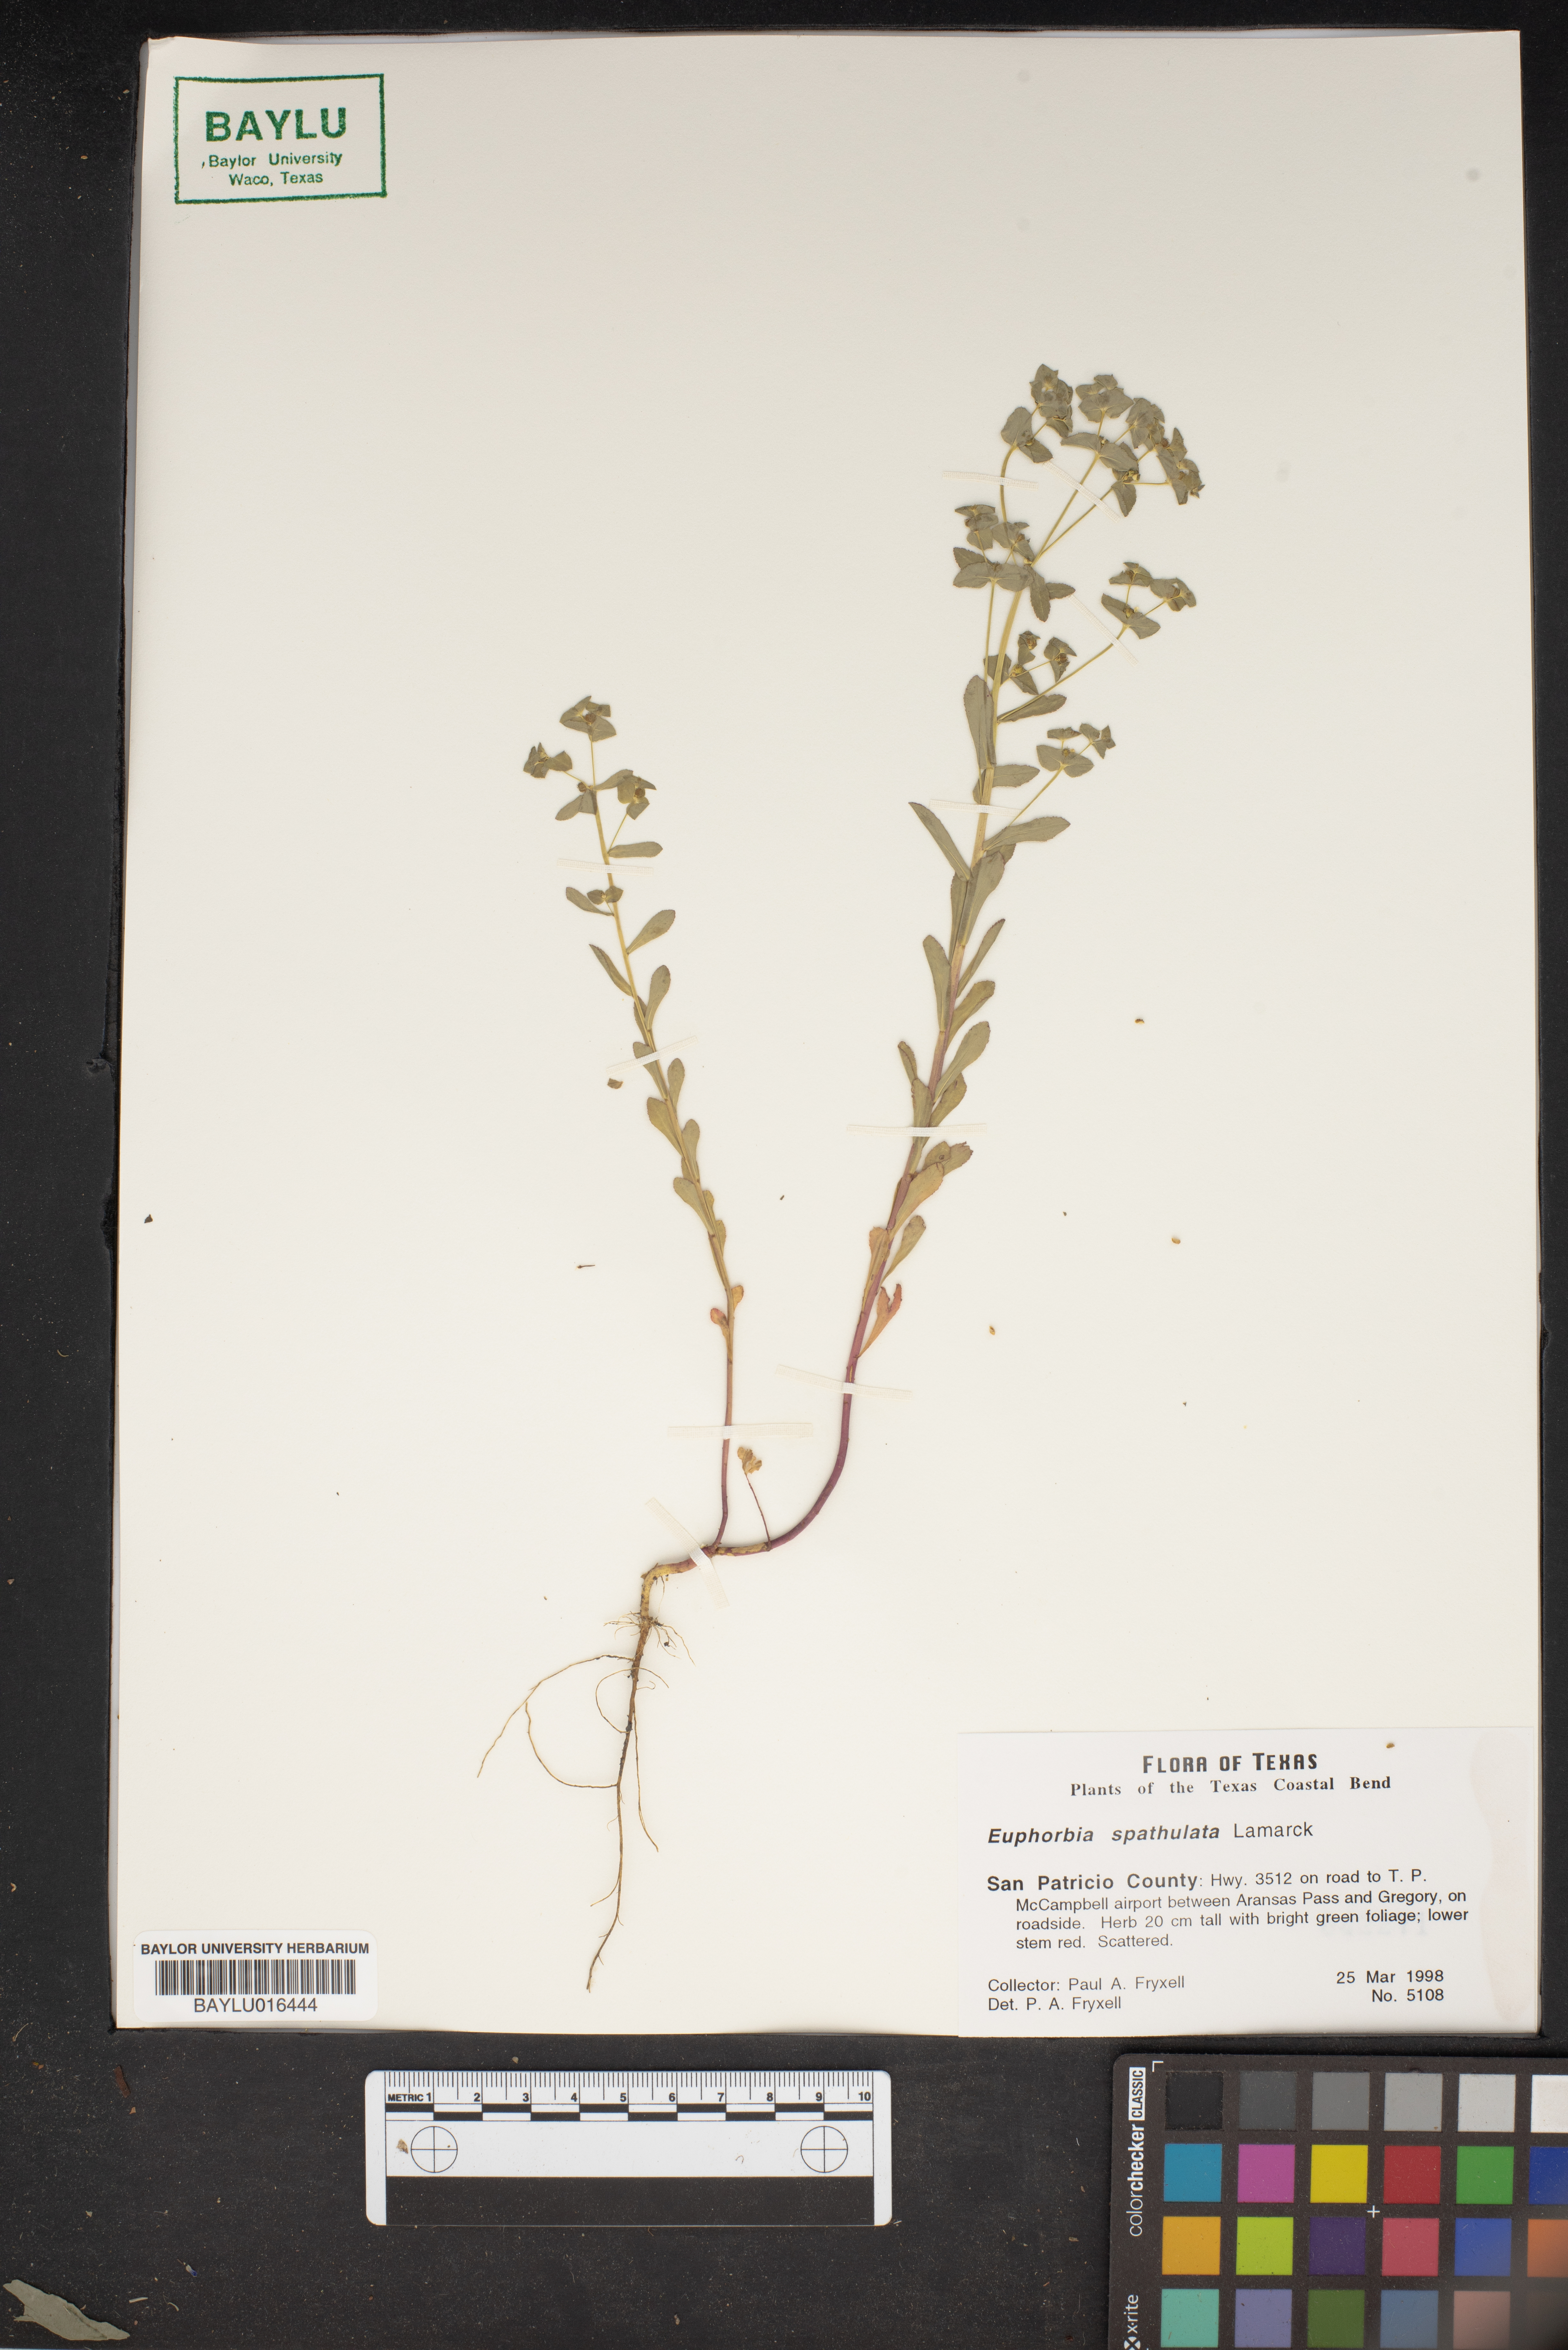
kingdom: Plantae
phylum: Tracheophyta
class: Magnoliopsida
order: Malpighiales
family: Euphorbiaceae
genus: Euphorbia
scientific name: Euphorbia spathulata
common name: Blunt spurge
